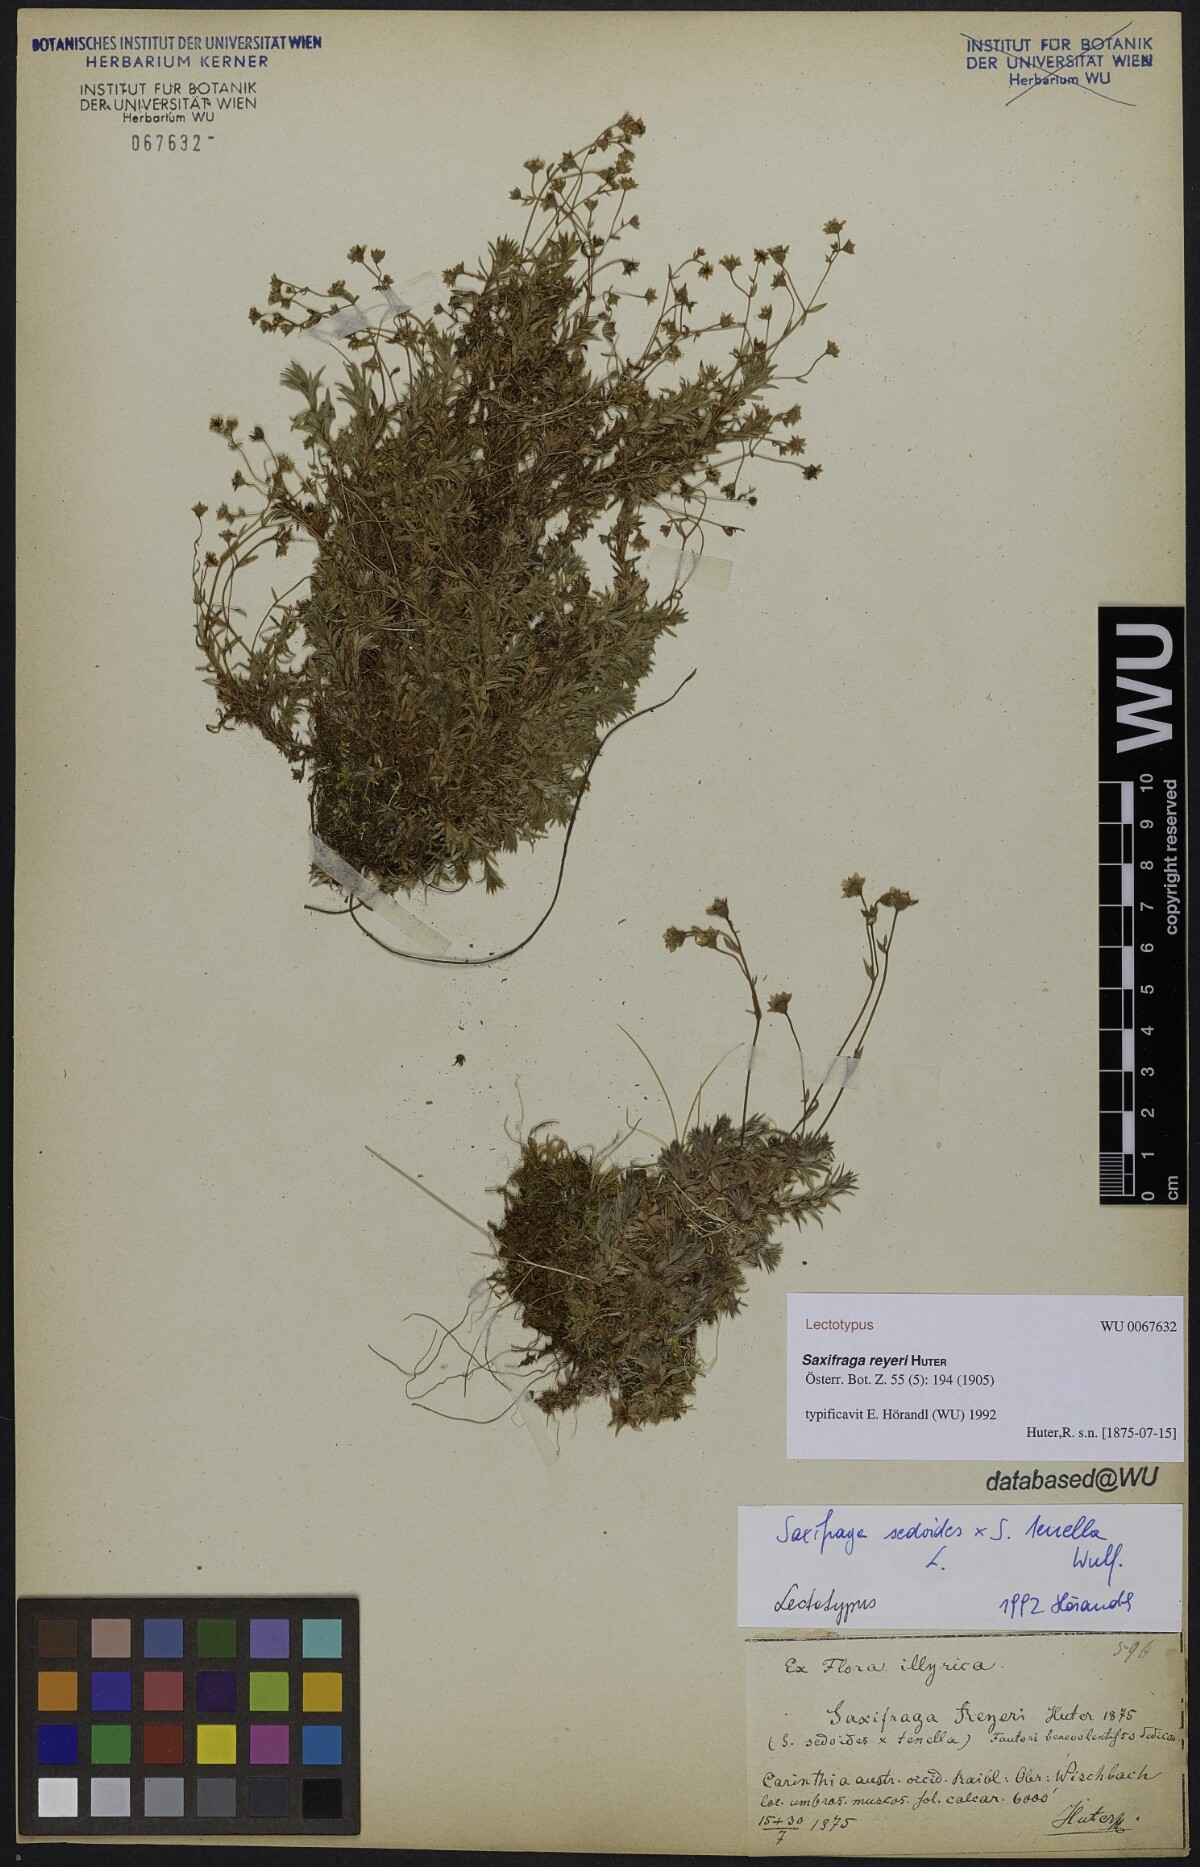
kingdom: Plantae
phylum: Tracheophyta
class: Magnoliopsida
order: Saxifragales
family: Saxifragaceae
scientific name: Saxifragaceae
